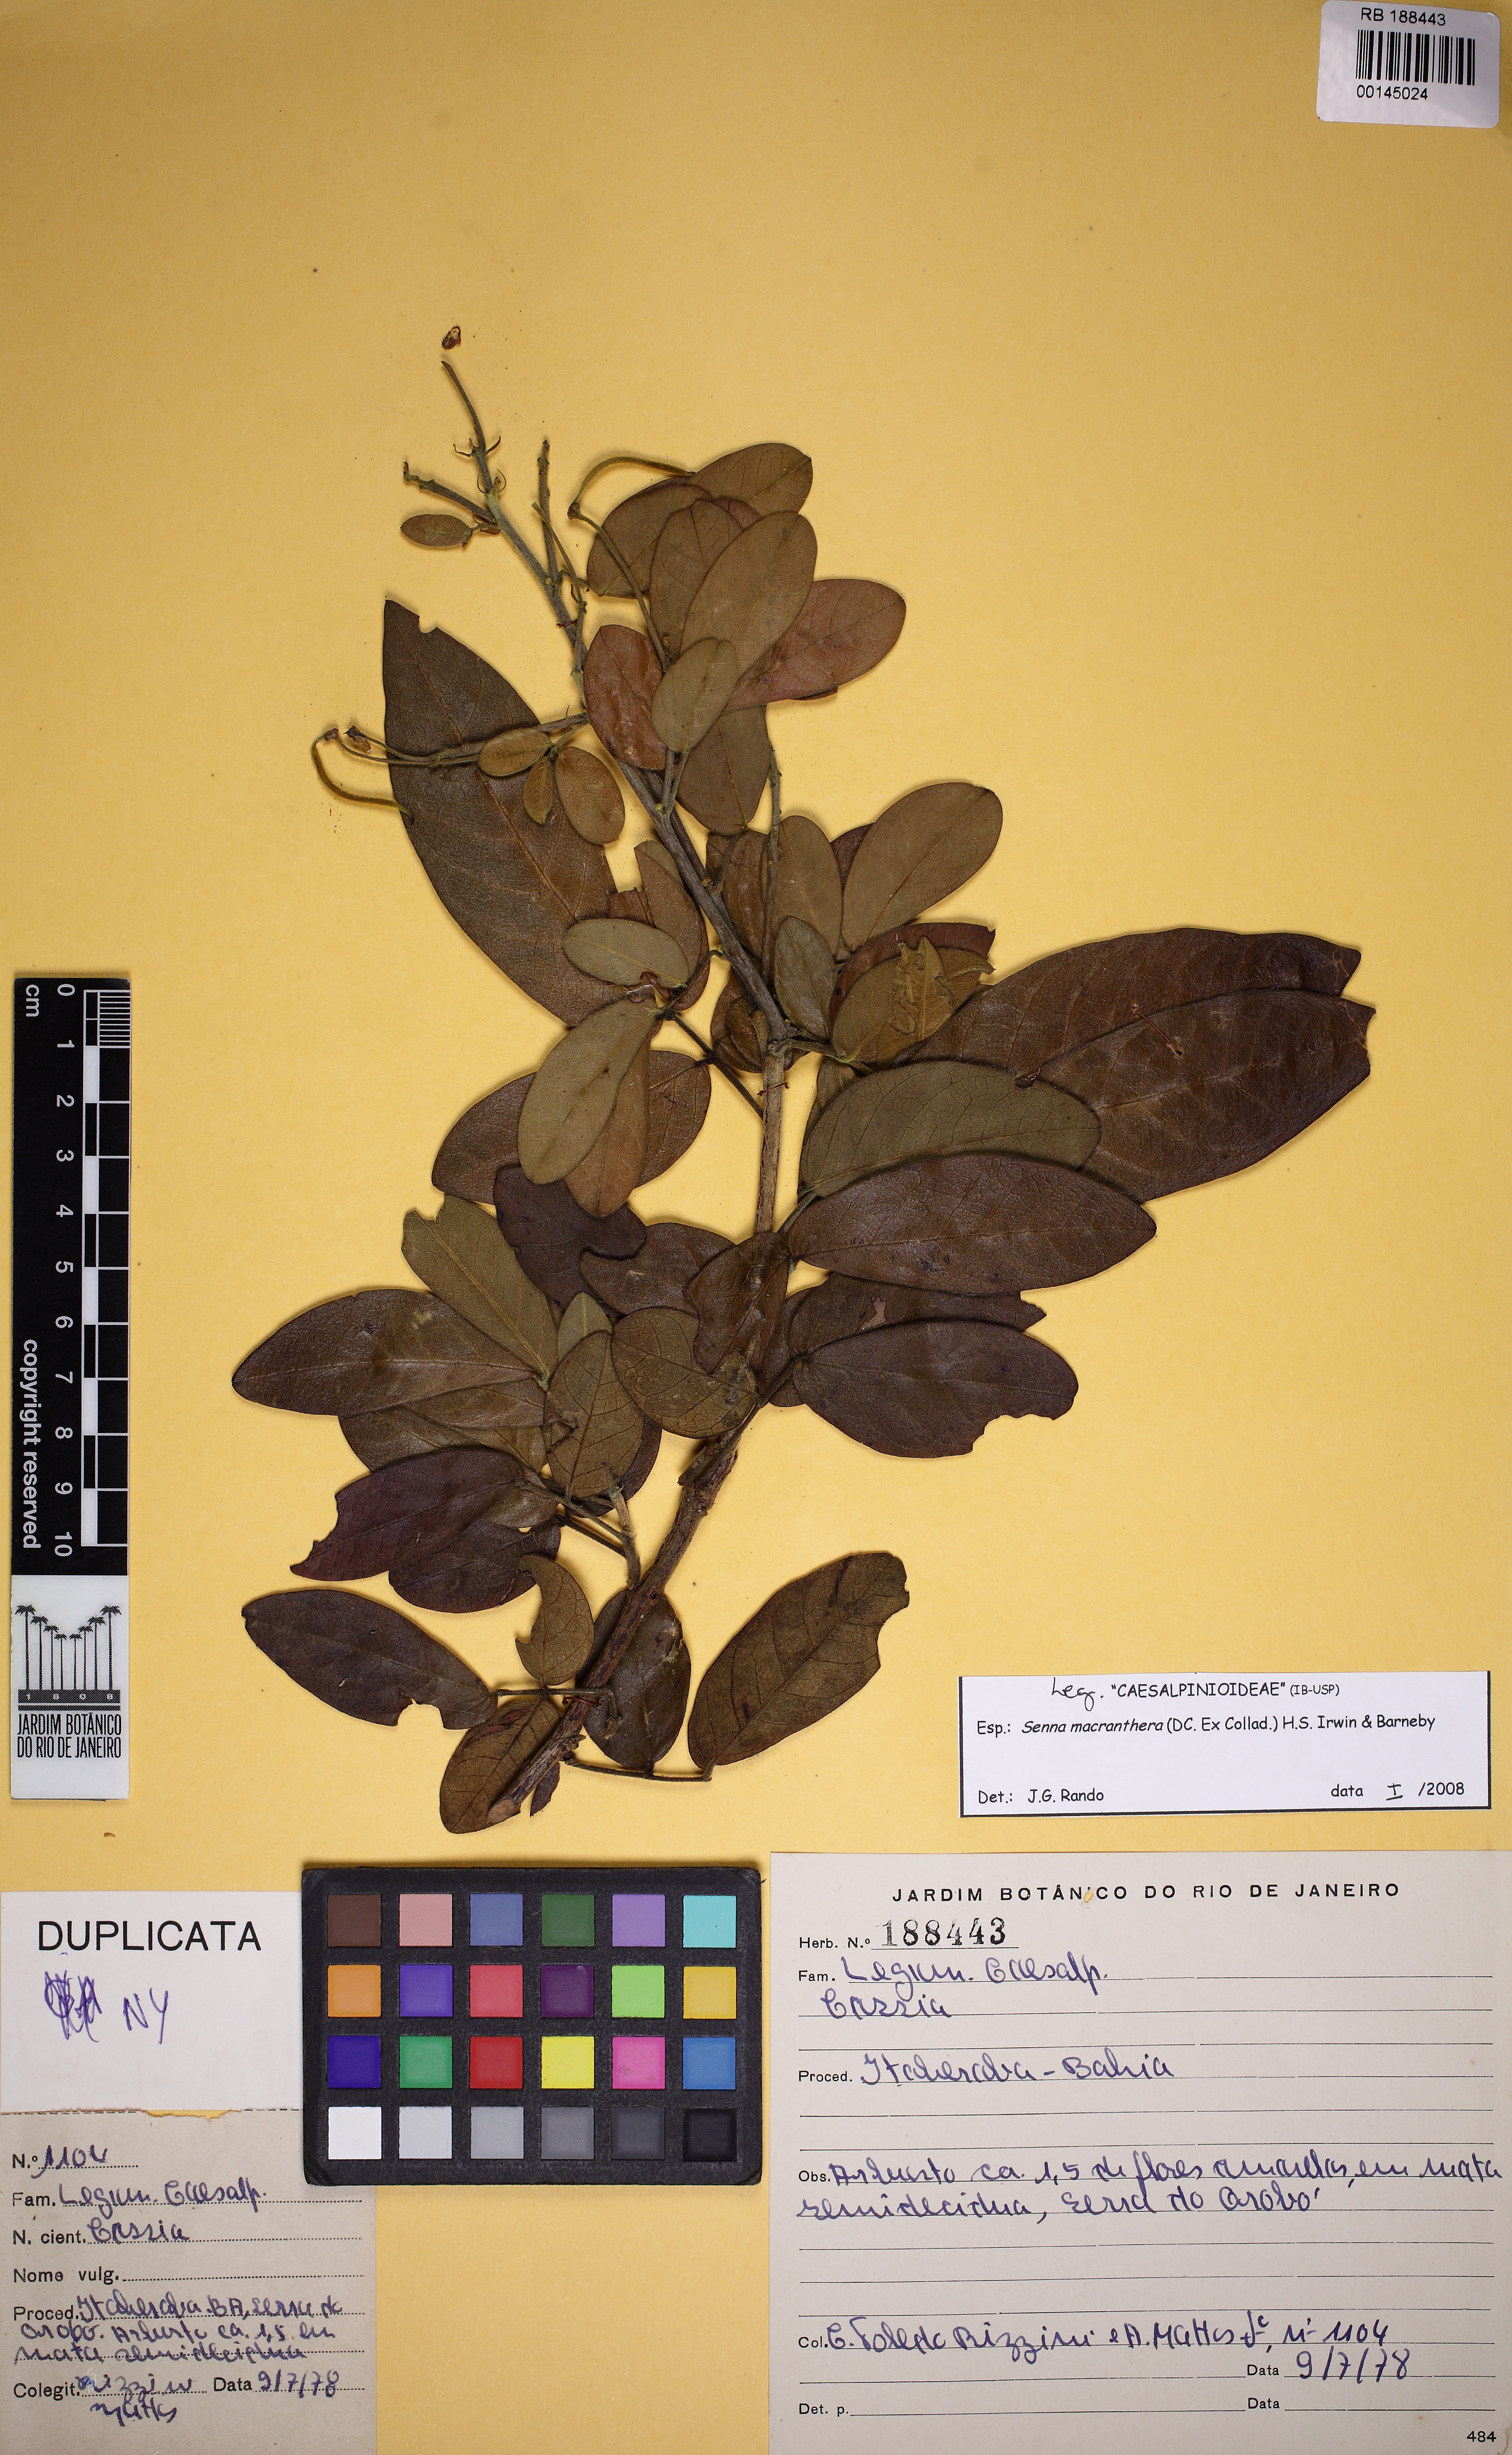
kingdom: Plantae
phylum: Tracheophyta
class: Magnoliopsida
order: Fabales
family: Fabaceae
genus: Senna
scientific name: Senna macranthera
